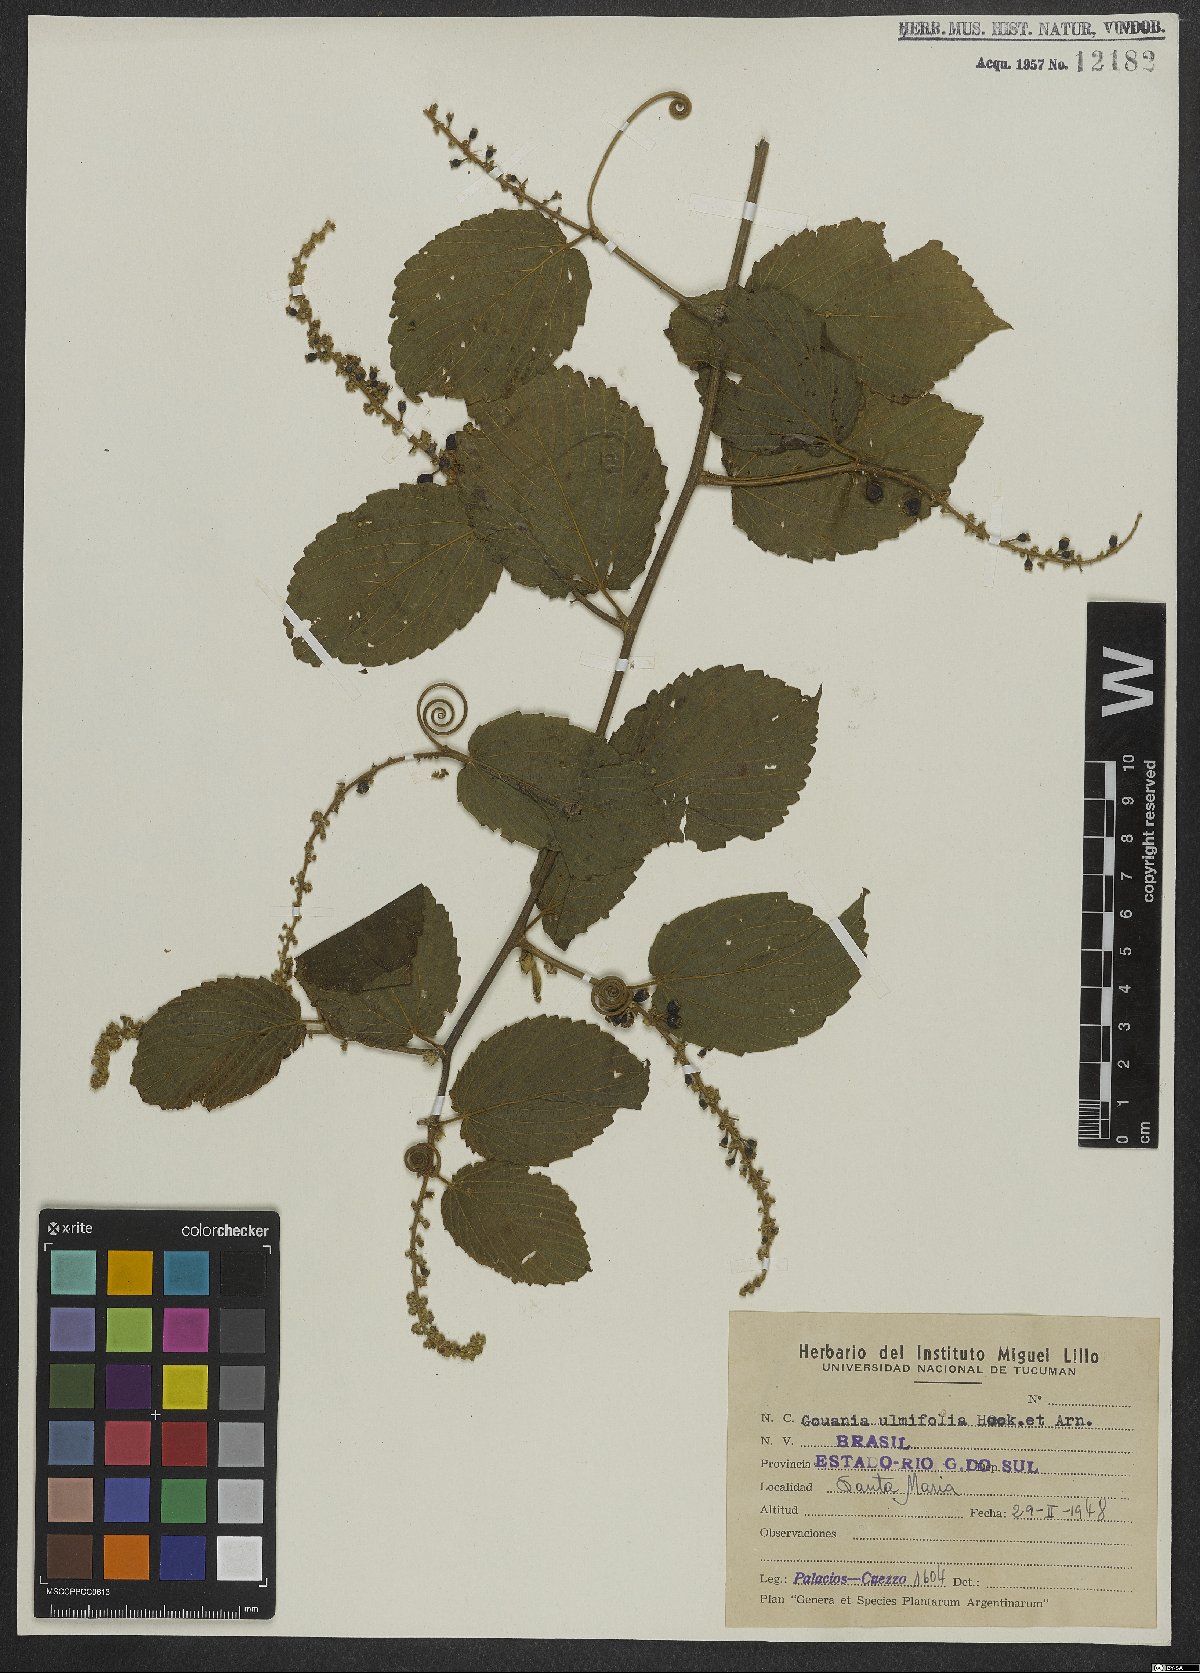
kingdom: Plantae
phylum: Tracheophyta
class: Magnoliopsida
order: Rosales
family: Rhamnaceae
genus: Gouania
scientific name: Gouania ulmifolia
